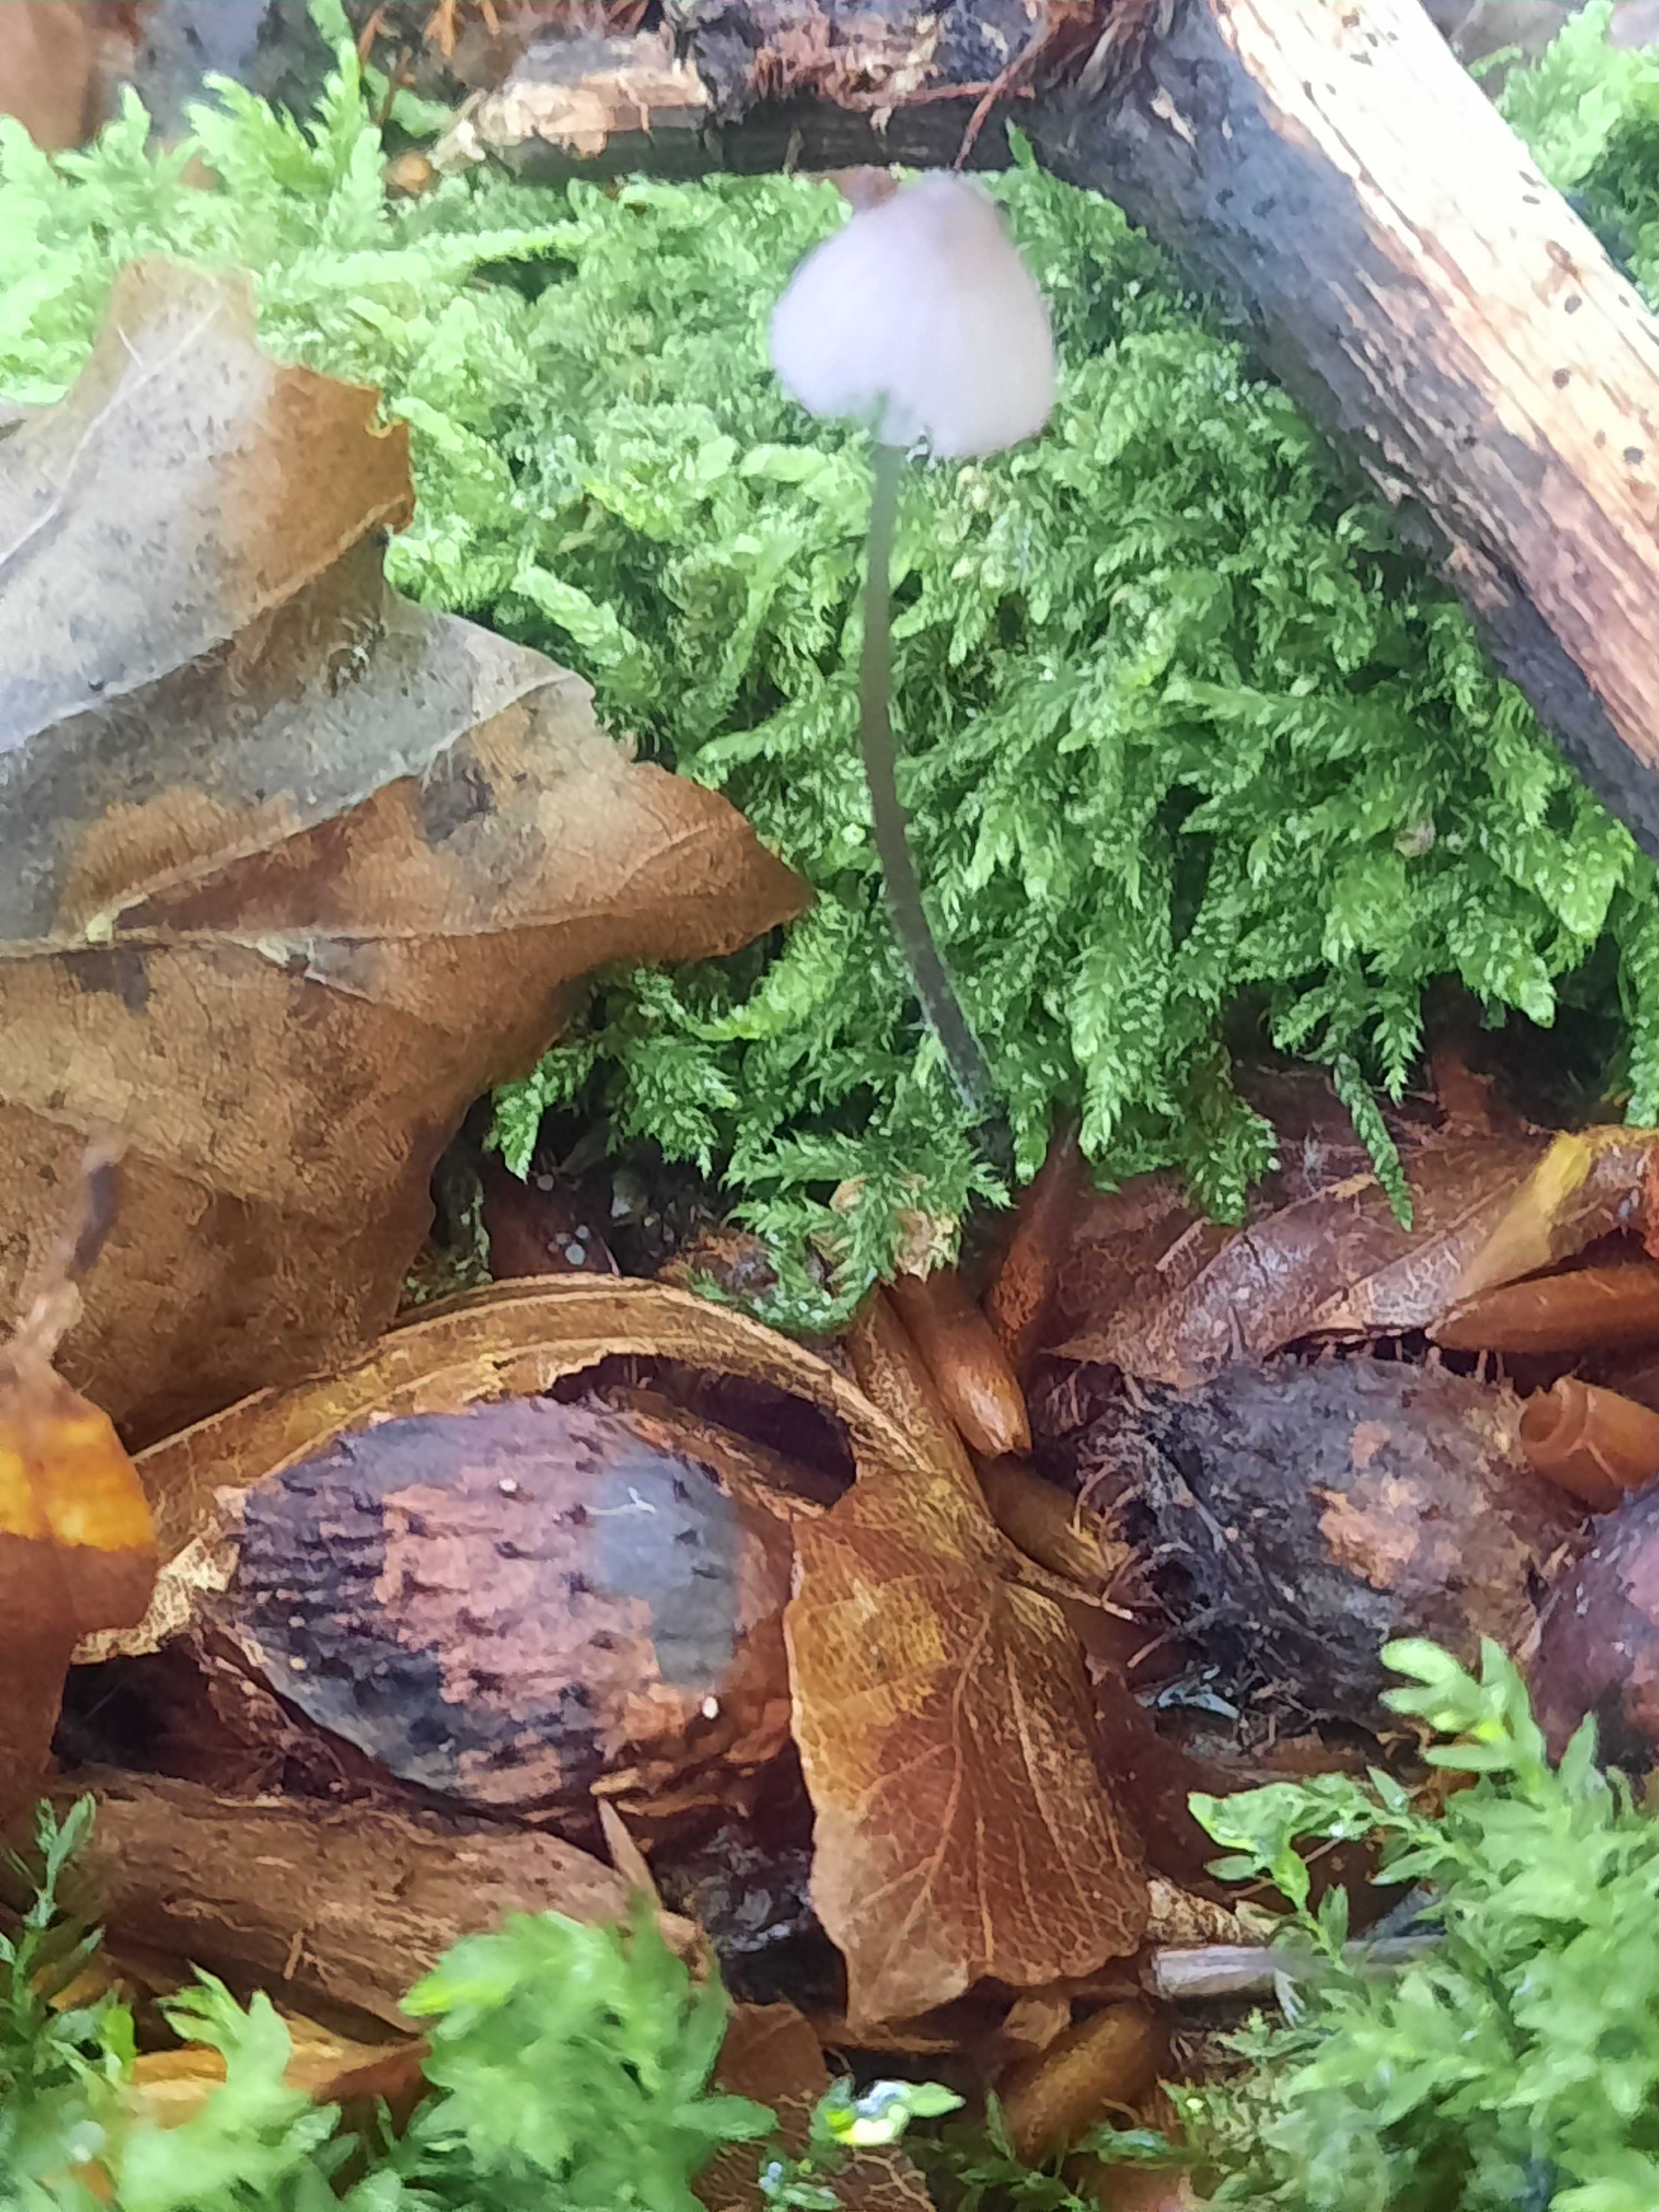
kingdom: Fungi
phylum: Basidiomycota
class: Agaricomycetes
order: Agaricales
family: Mycenaceae
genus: Mycena
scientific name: Mycena
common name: huesvamp
